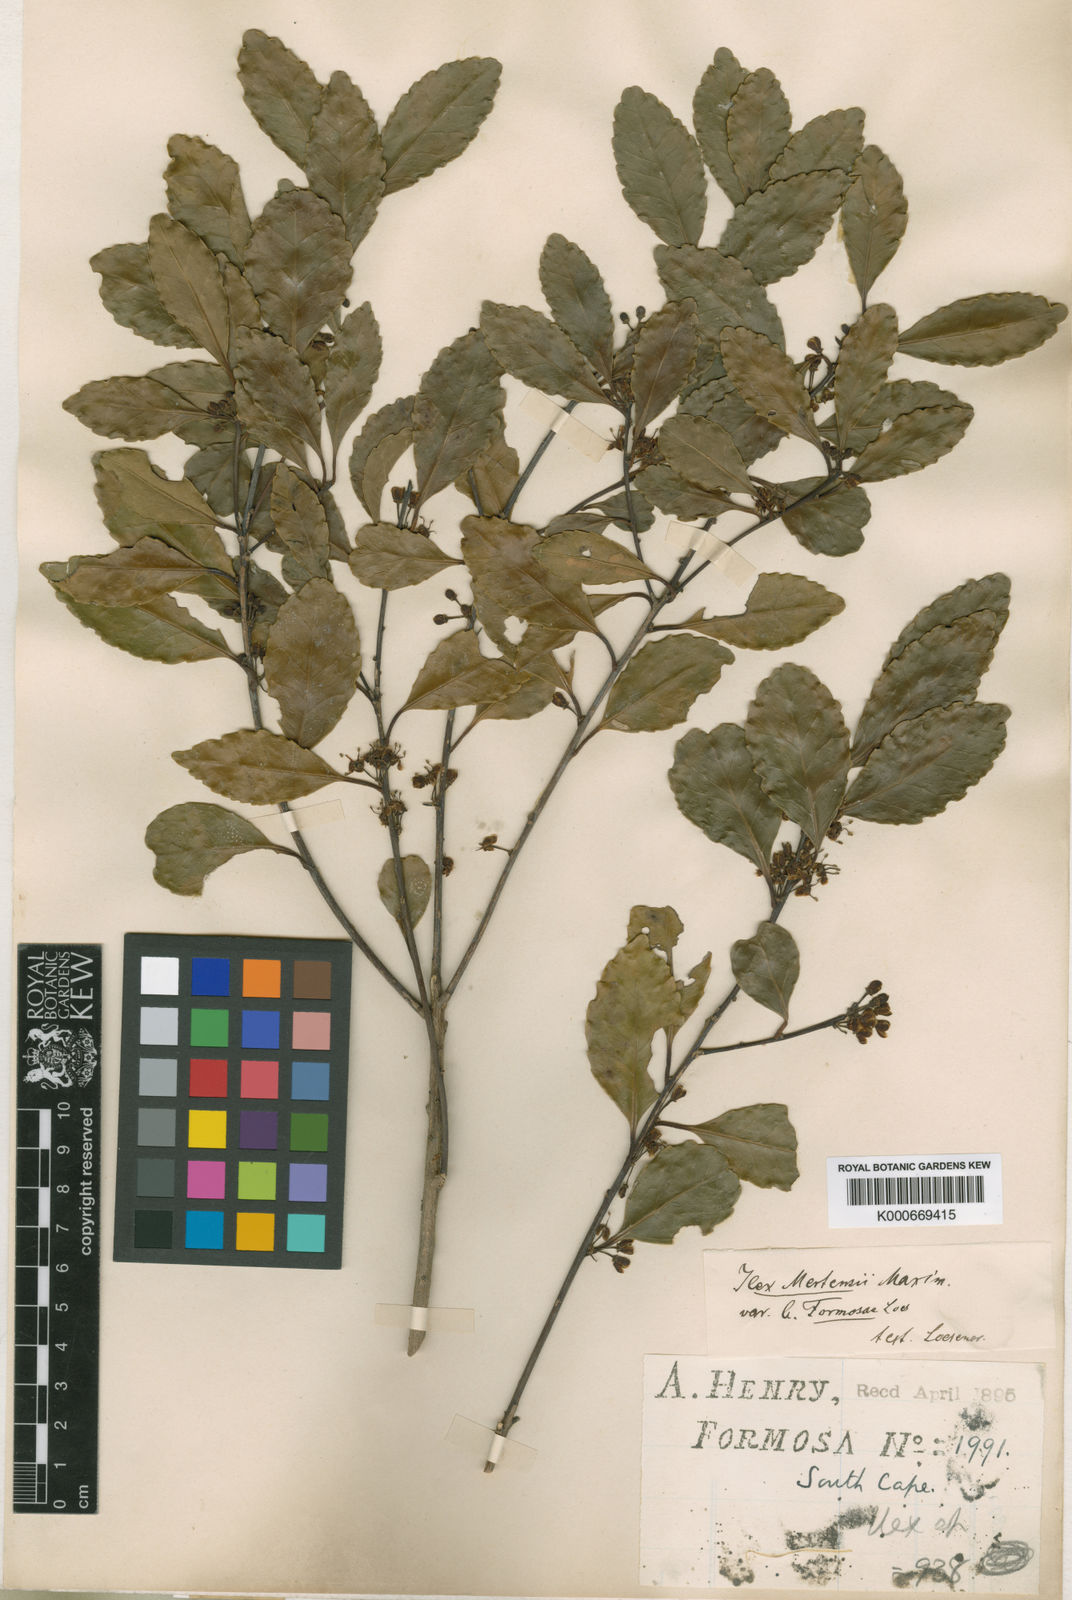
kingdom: Plantae
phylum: Tracheophyta
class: Magnoliopsida
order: Aquifoliales
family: Aquifoliaceae
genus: Ilex
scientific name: Ilex uraiensis
